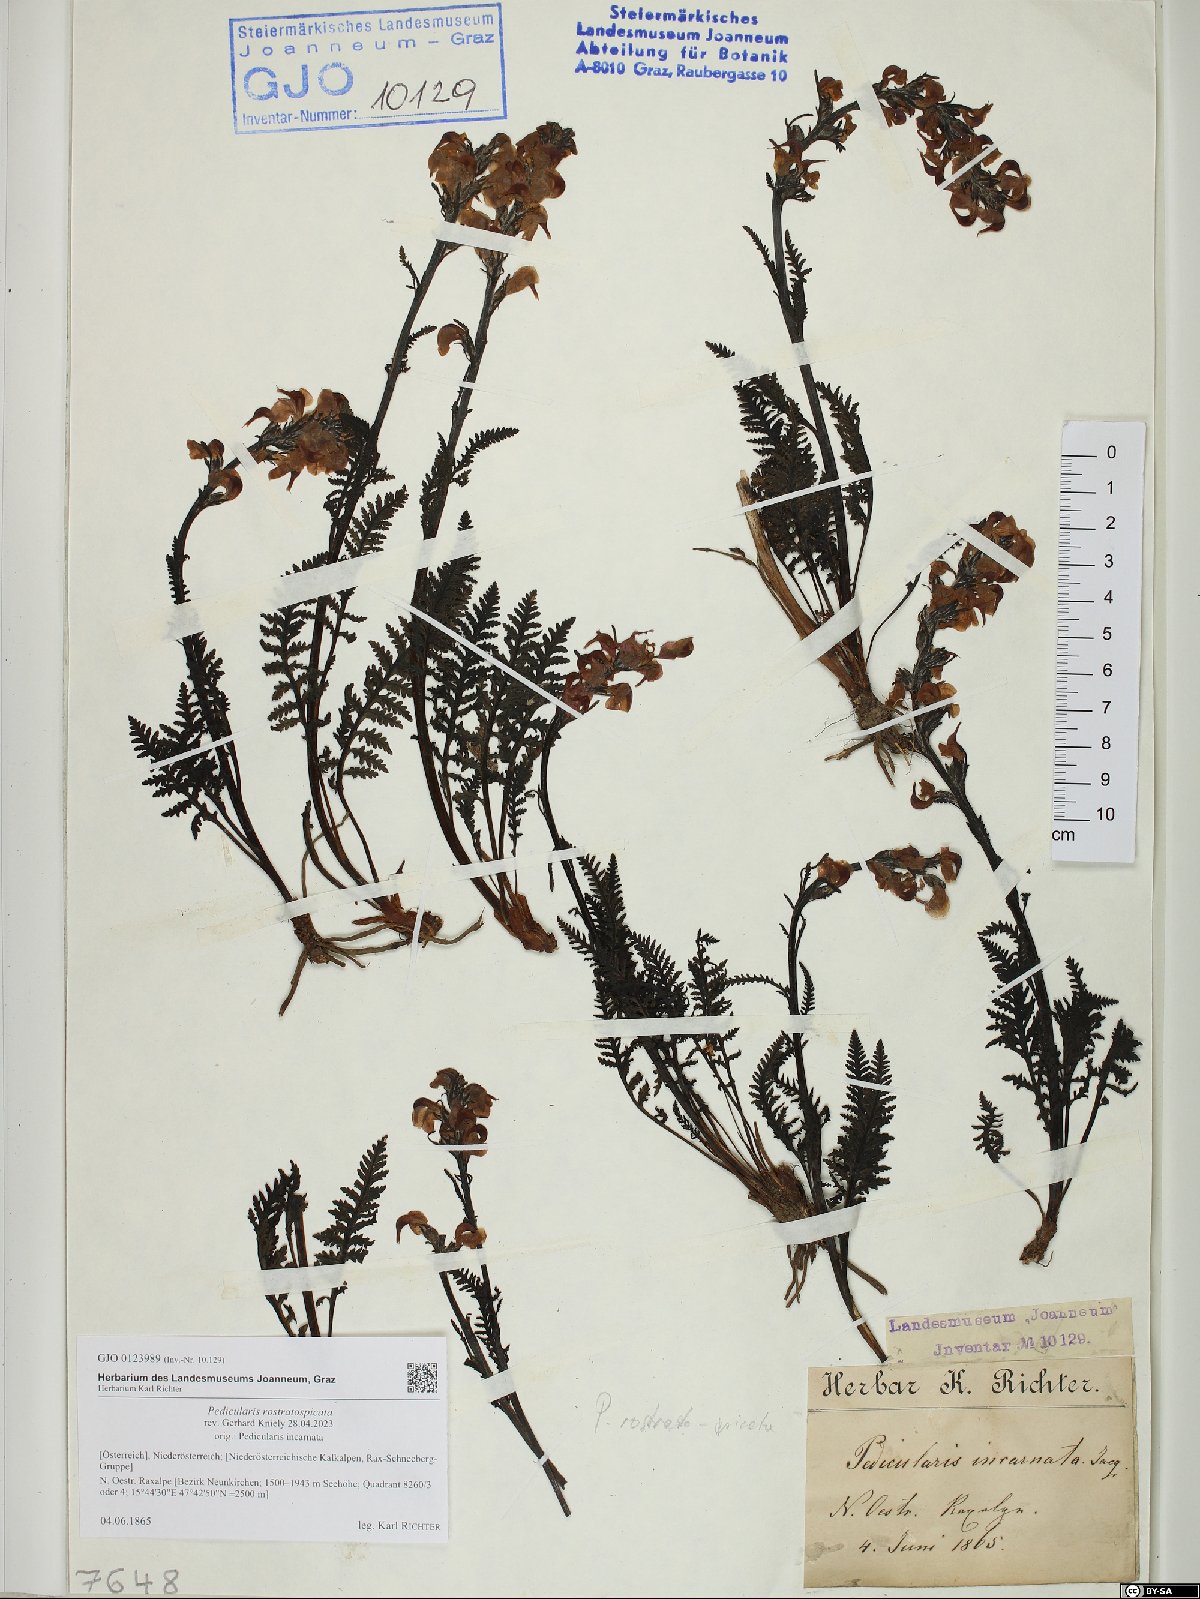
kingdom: Plantae
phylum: Tracheophyta
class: Magnoliopsida
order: Lamiales
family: Orobanchaceae
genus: Pedicularis
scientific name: Pedicularis rostratospicata
